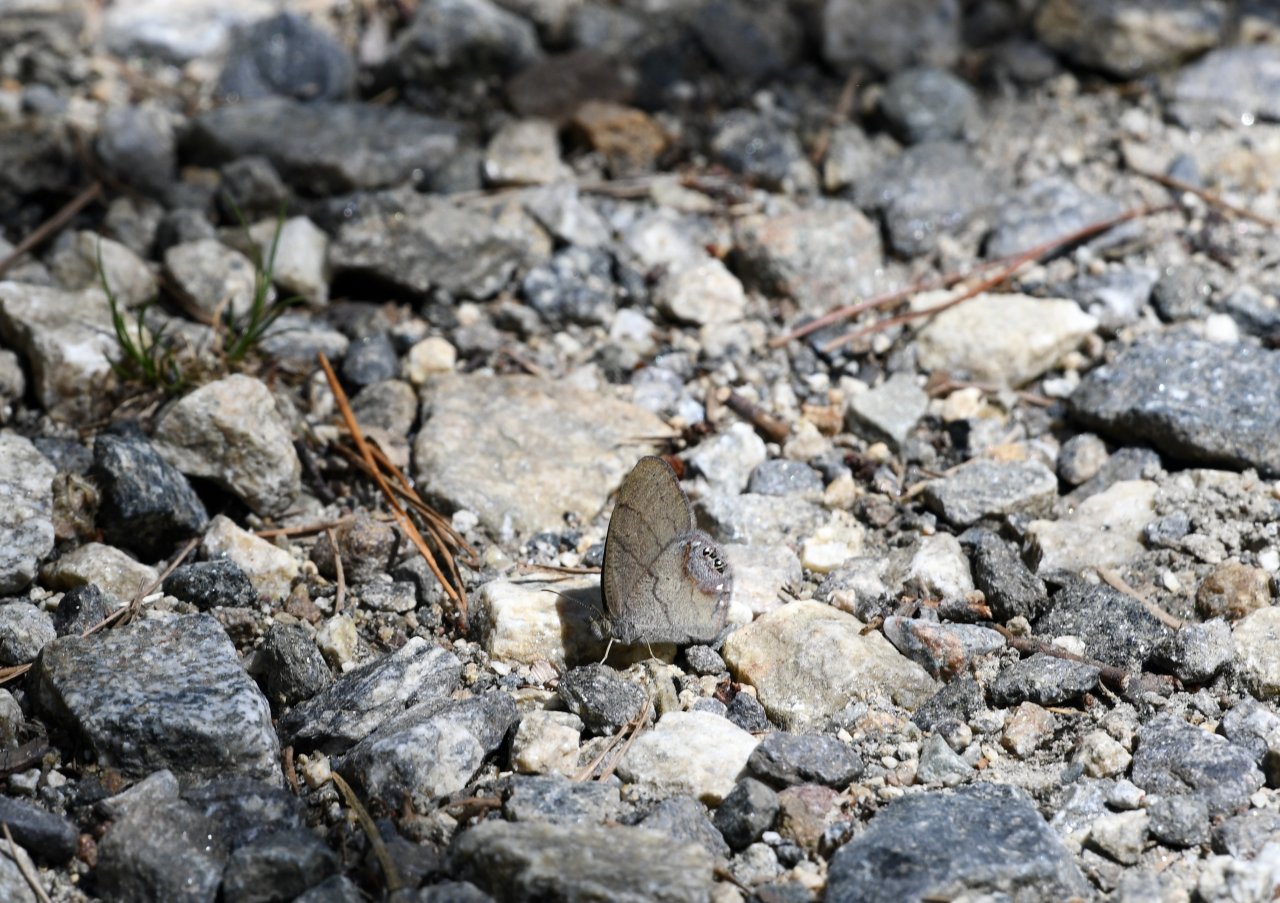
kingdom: Animalia
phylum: Arthropoda
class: Insecta
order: Lepidoptera
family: Nymphalidae
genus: Euptychia
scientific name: Euptychia cornelius
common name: Gemmed Satyr
